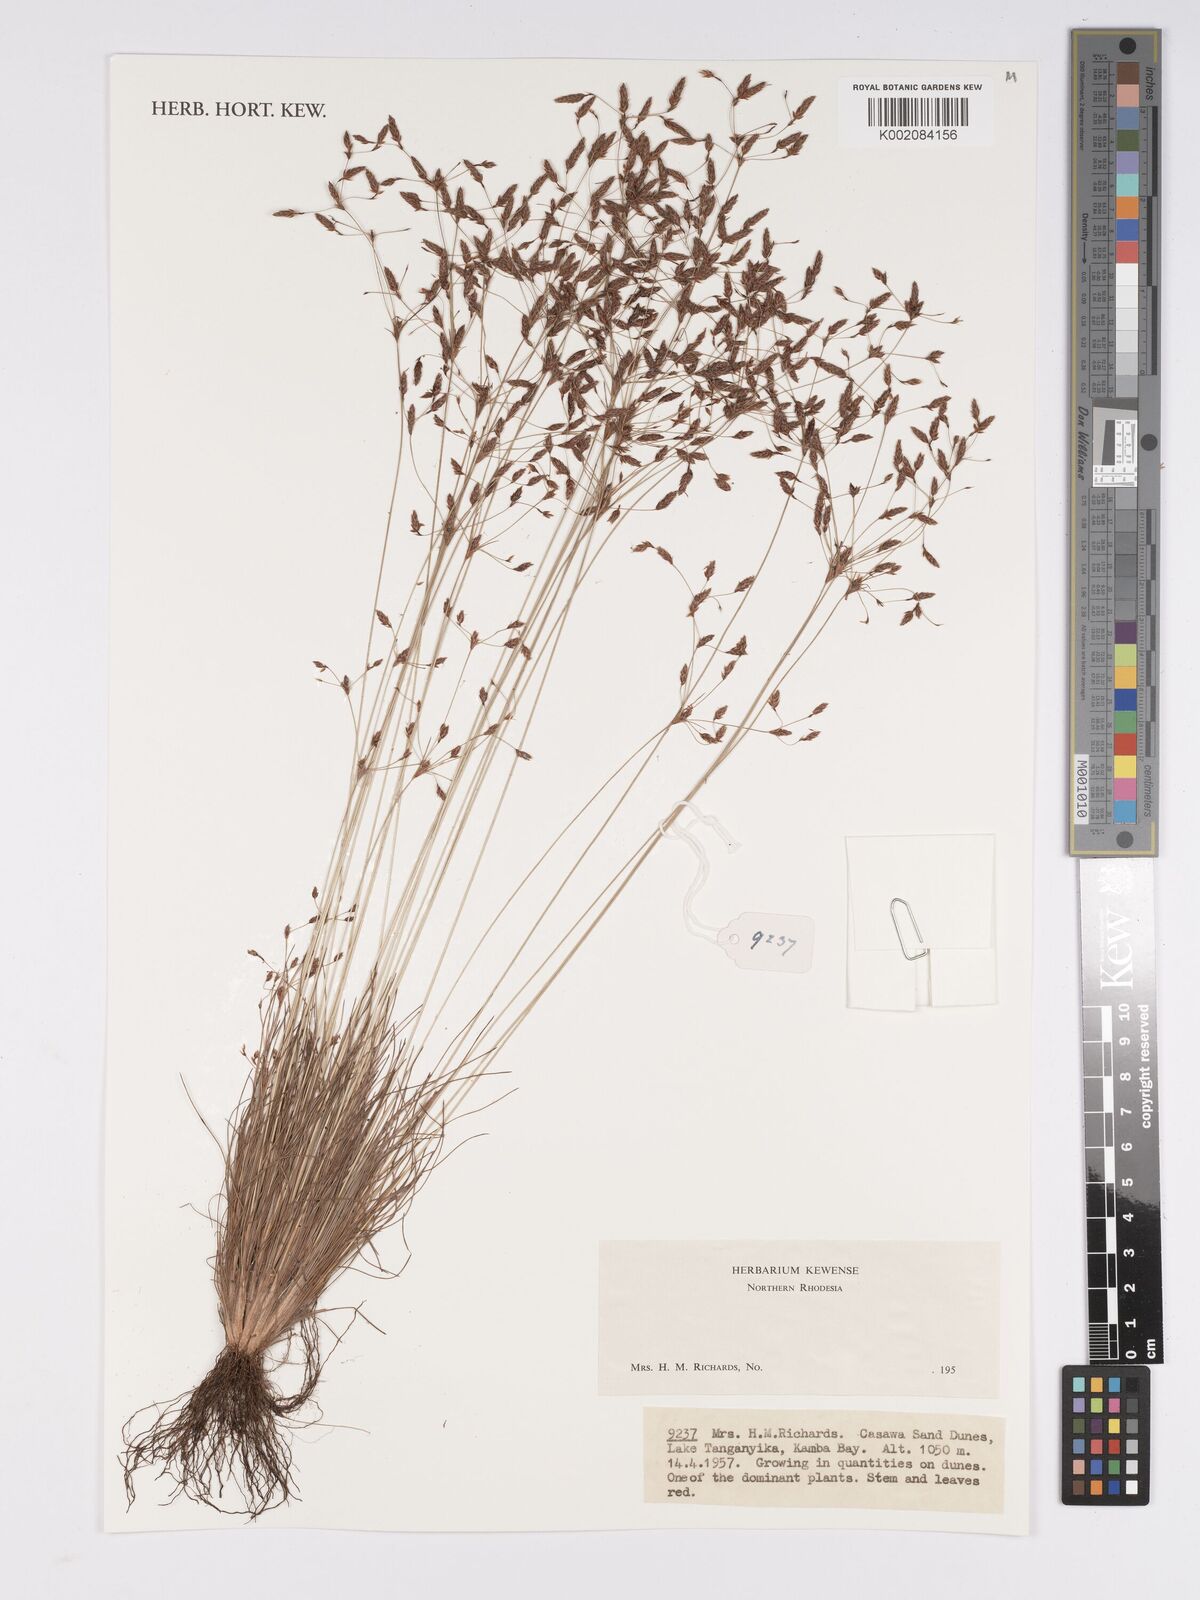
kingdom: Plantae
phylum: Tracheophyta
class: Liliopsida
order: Poales
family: Cyperaceae
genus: Bulbostylis
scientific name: Bulbostylis
